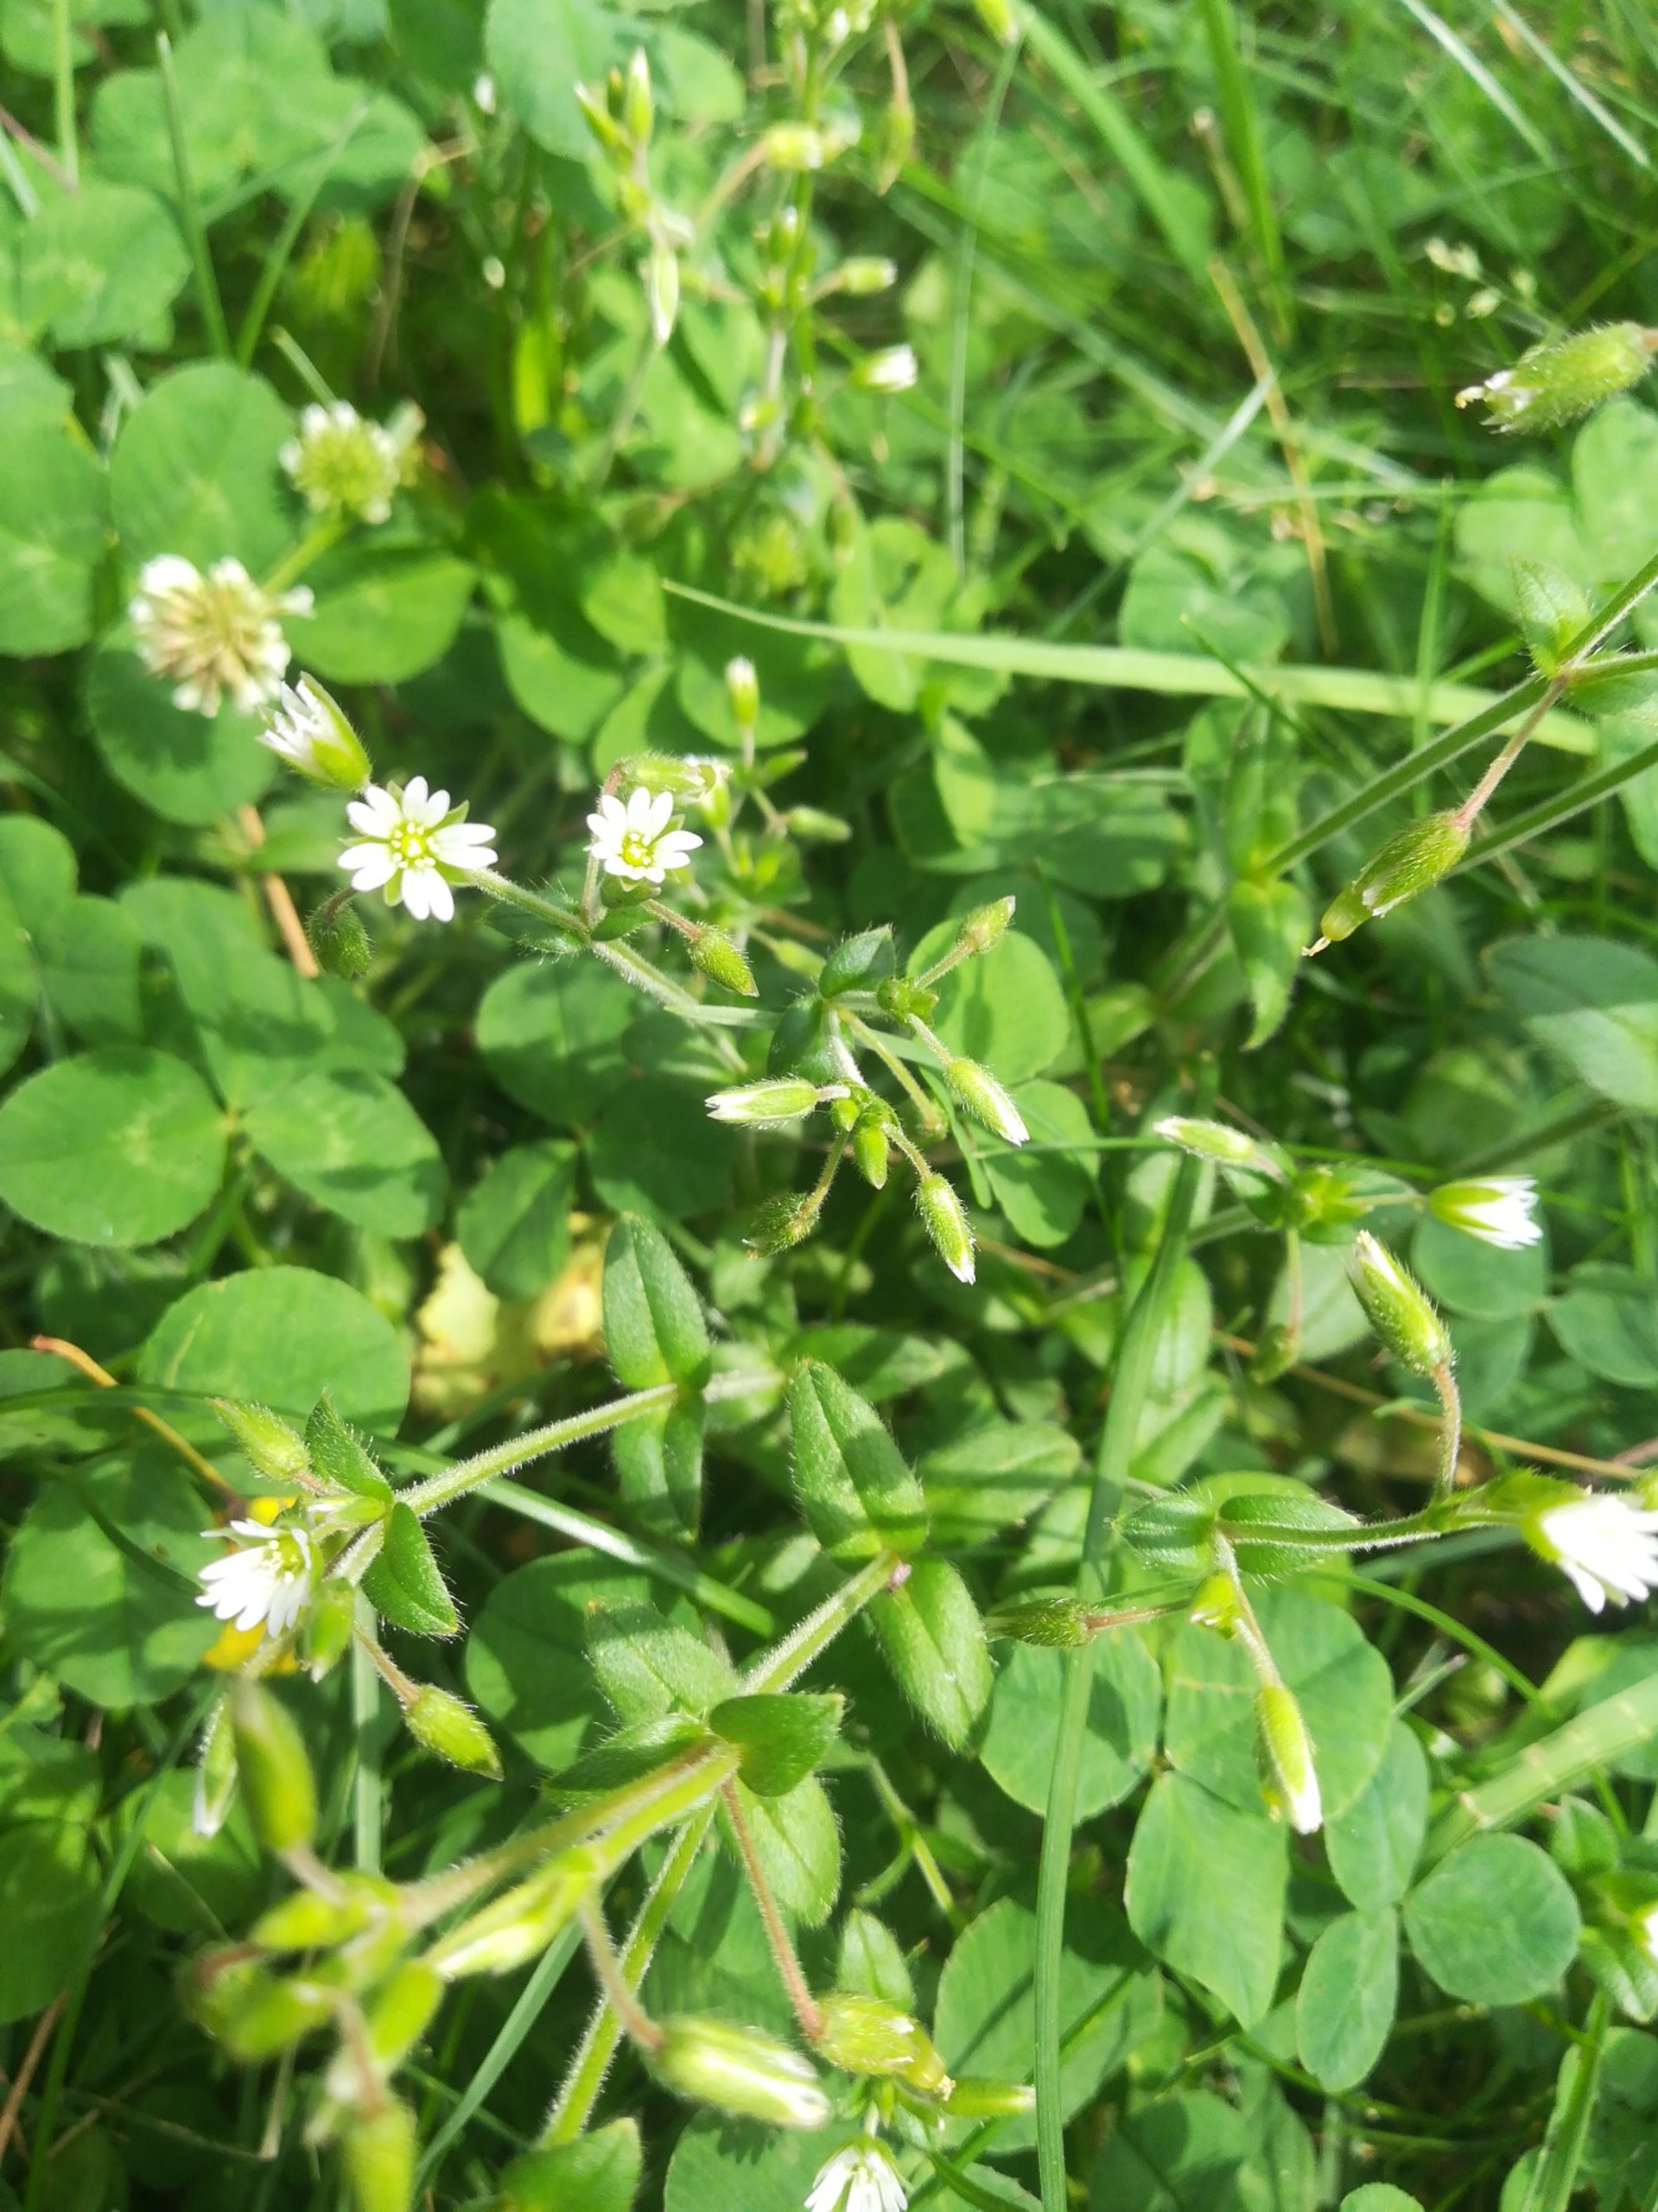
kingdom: Plantae
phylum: Tracheophyta
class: Magnoliopsida
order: Caryophyllales
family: Caryophyllaceae
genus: Cerastium
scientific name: Cerastium fontanum
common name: Almindelig hønsetarm
